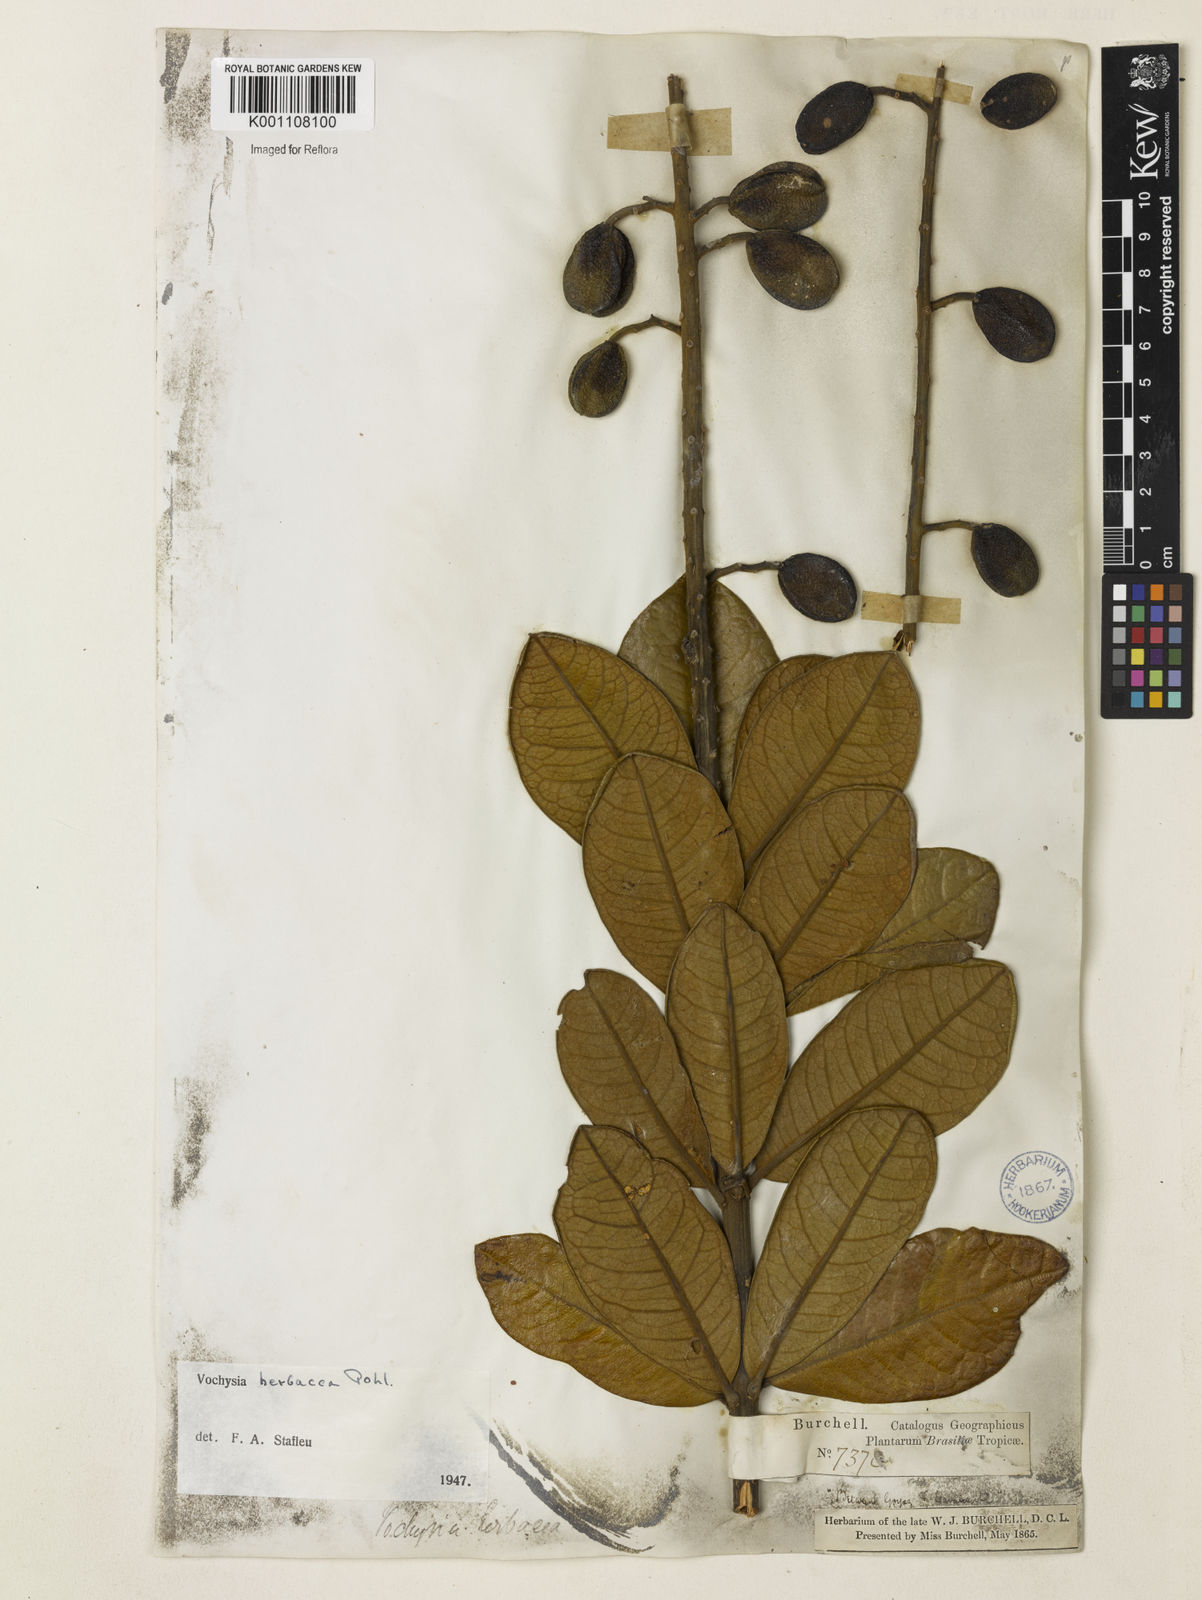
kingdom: Plantae
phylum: Tracheophyta
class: Magnoliopsida
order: Myrtales
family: Vochysiaceae
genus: Vochysia
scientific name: Vochysia herbacea
